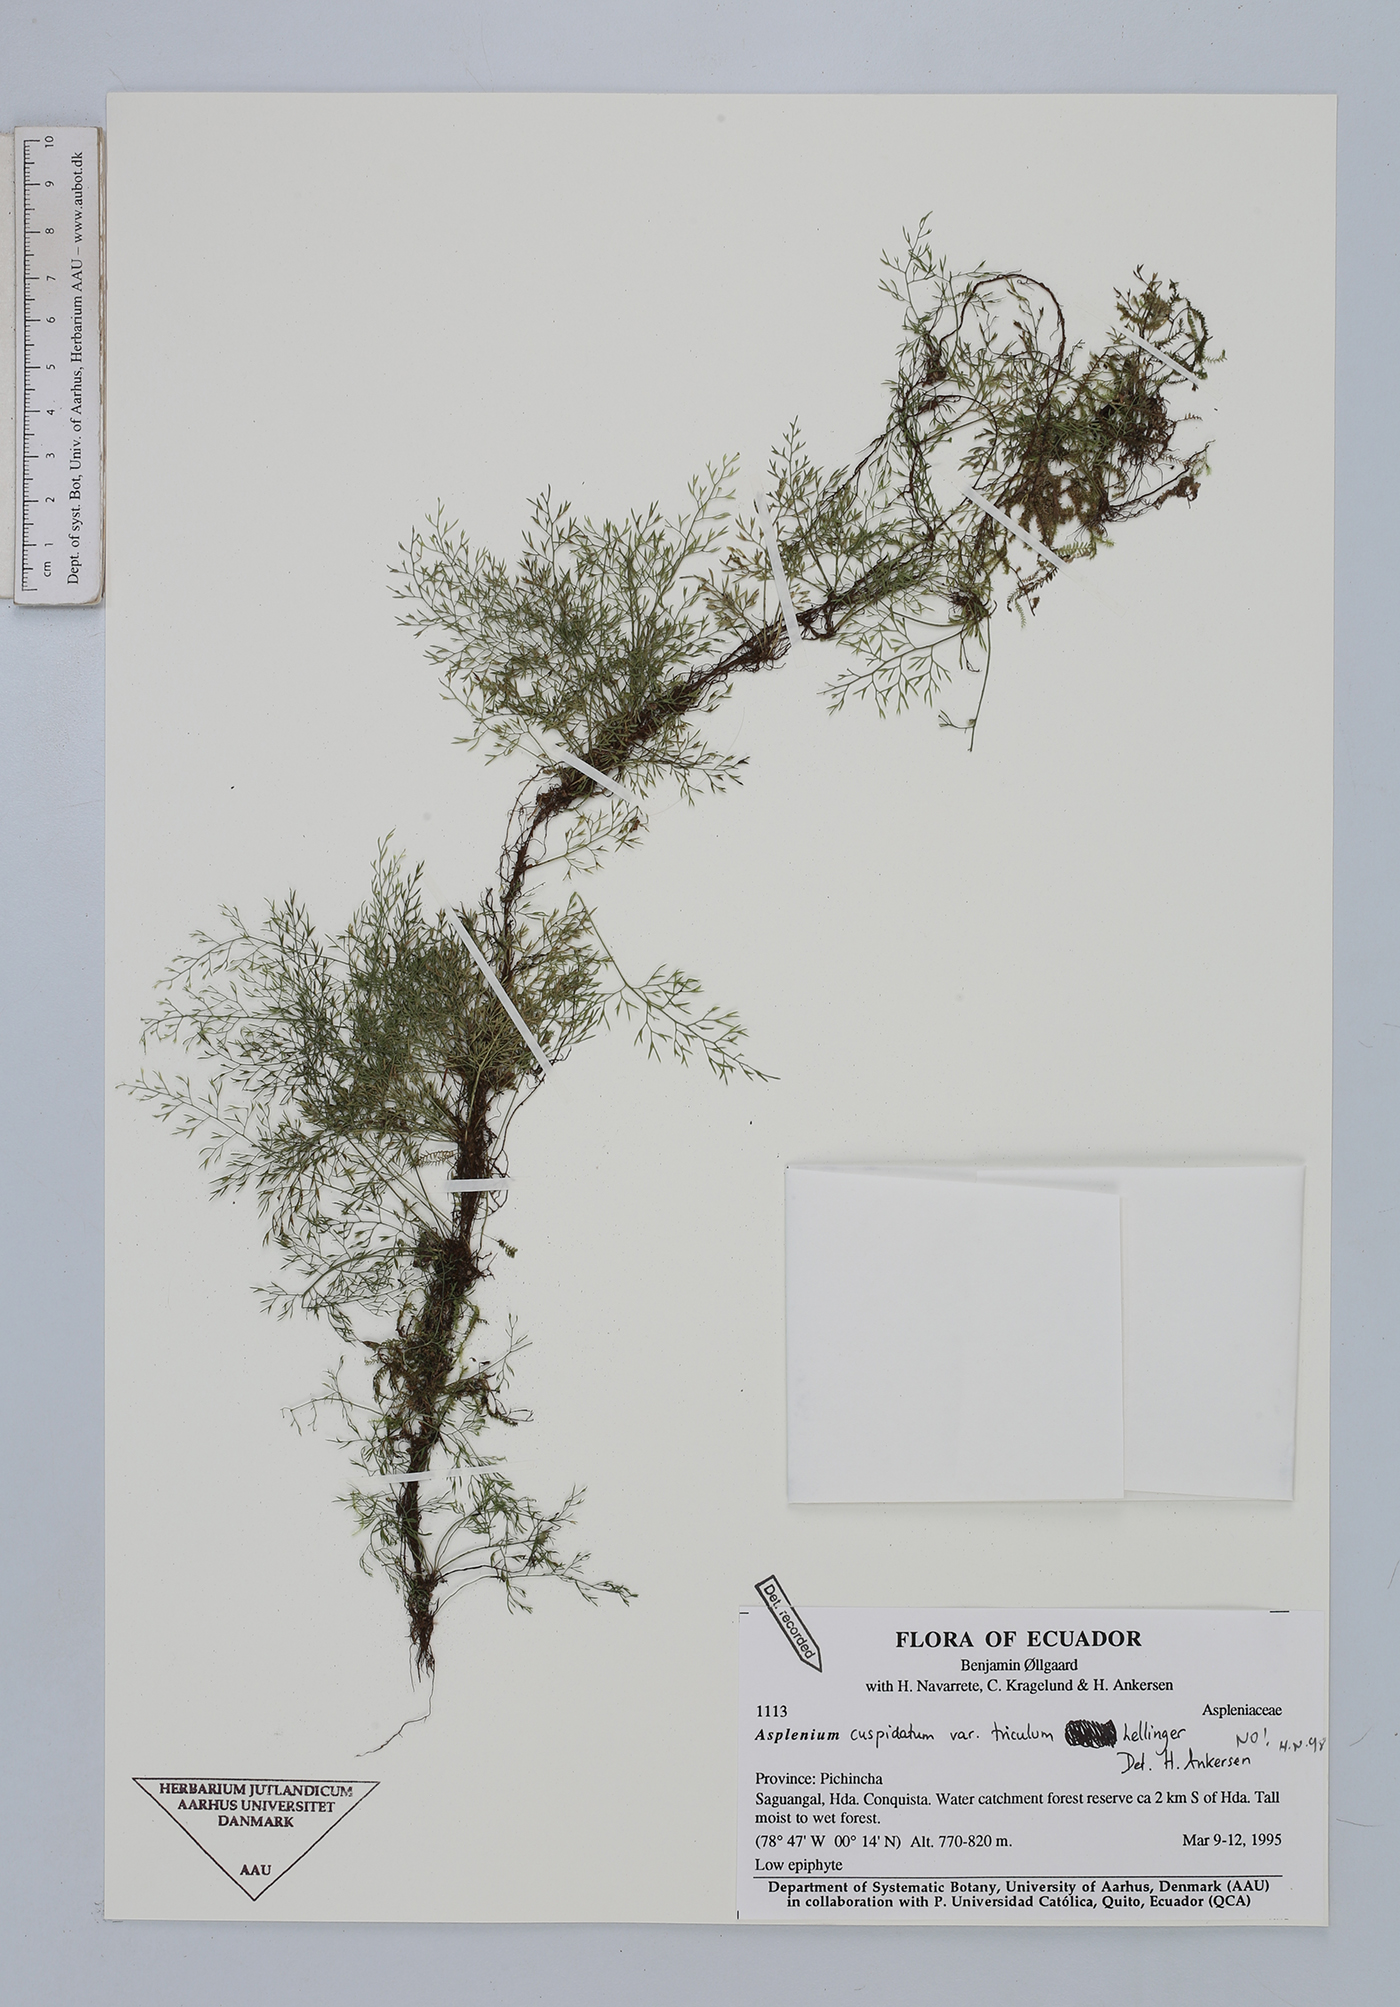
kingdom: Plantae
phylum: Tracheophyta
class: Polypodiopsida
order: Polypodiales
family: Aspleniaceae
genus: Asplenium
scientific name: Asplenium cuspidatum
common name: Eared spleenwort
